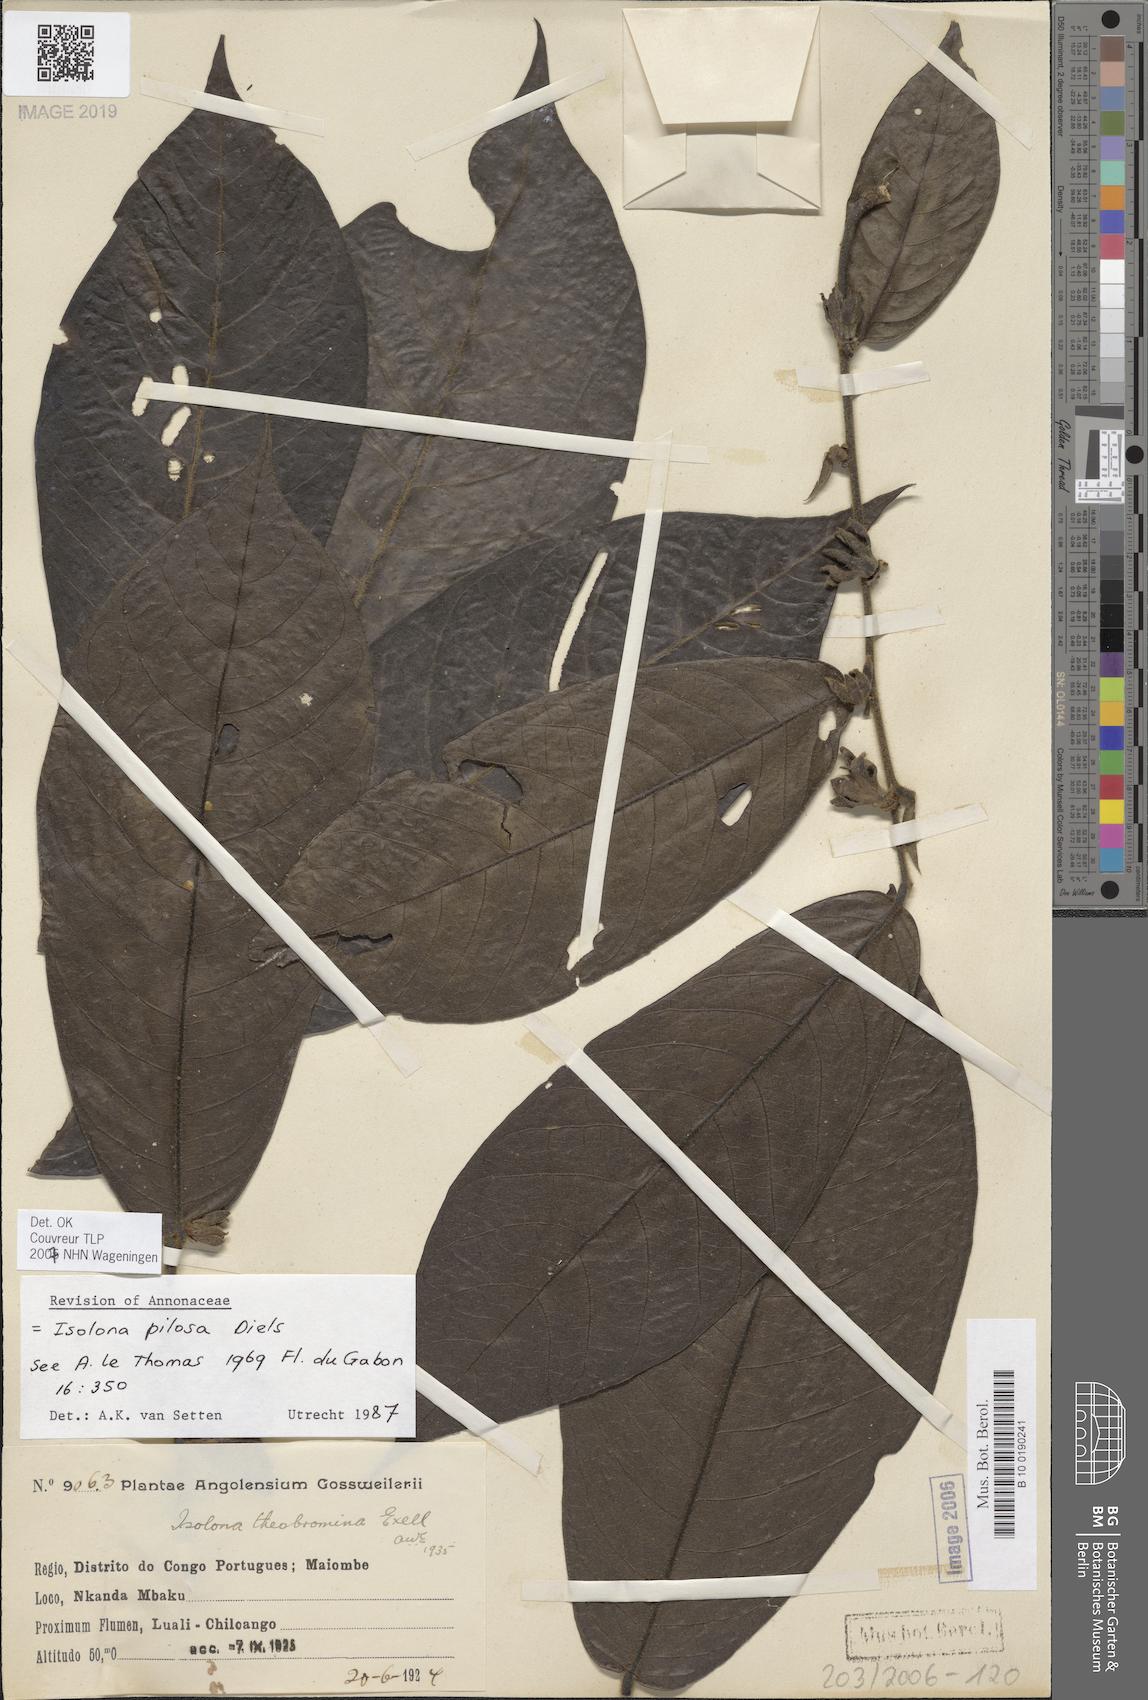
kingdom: Plantae
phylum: Tracheophyta
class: Magnoliopsida
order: Magnoliales
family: Annonaceae
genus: Isolona
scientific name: Isolona pilosa
